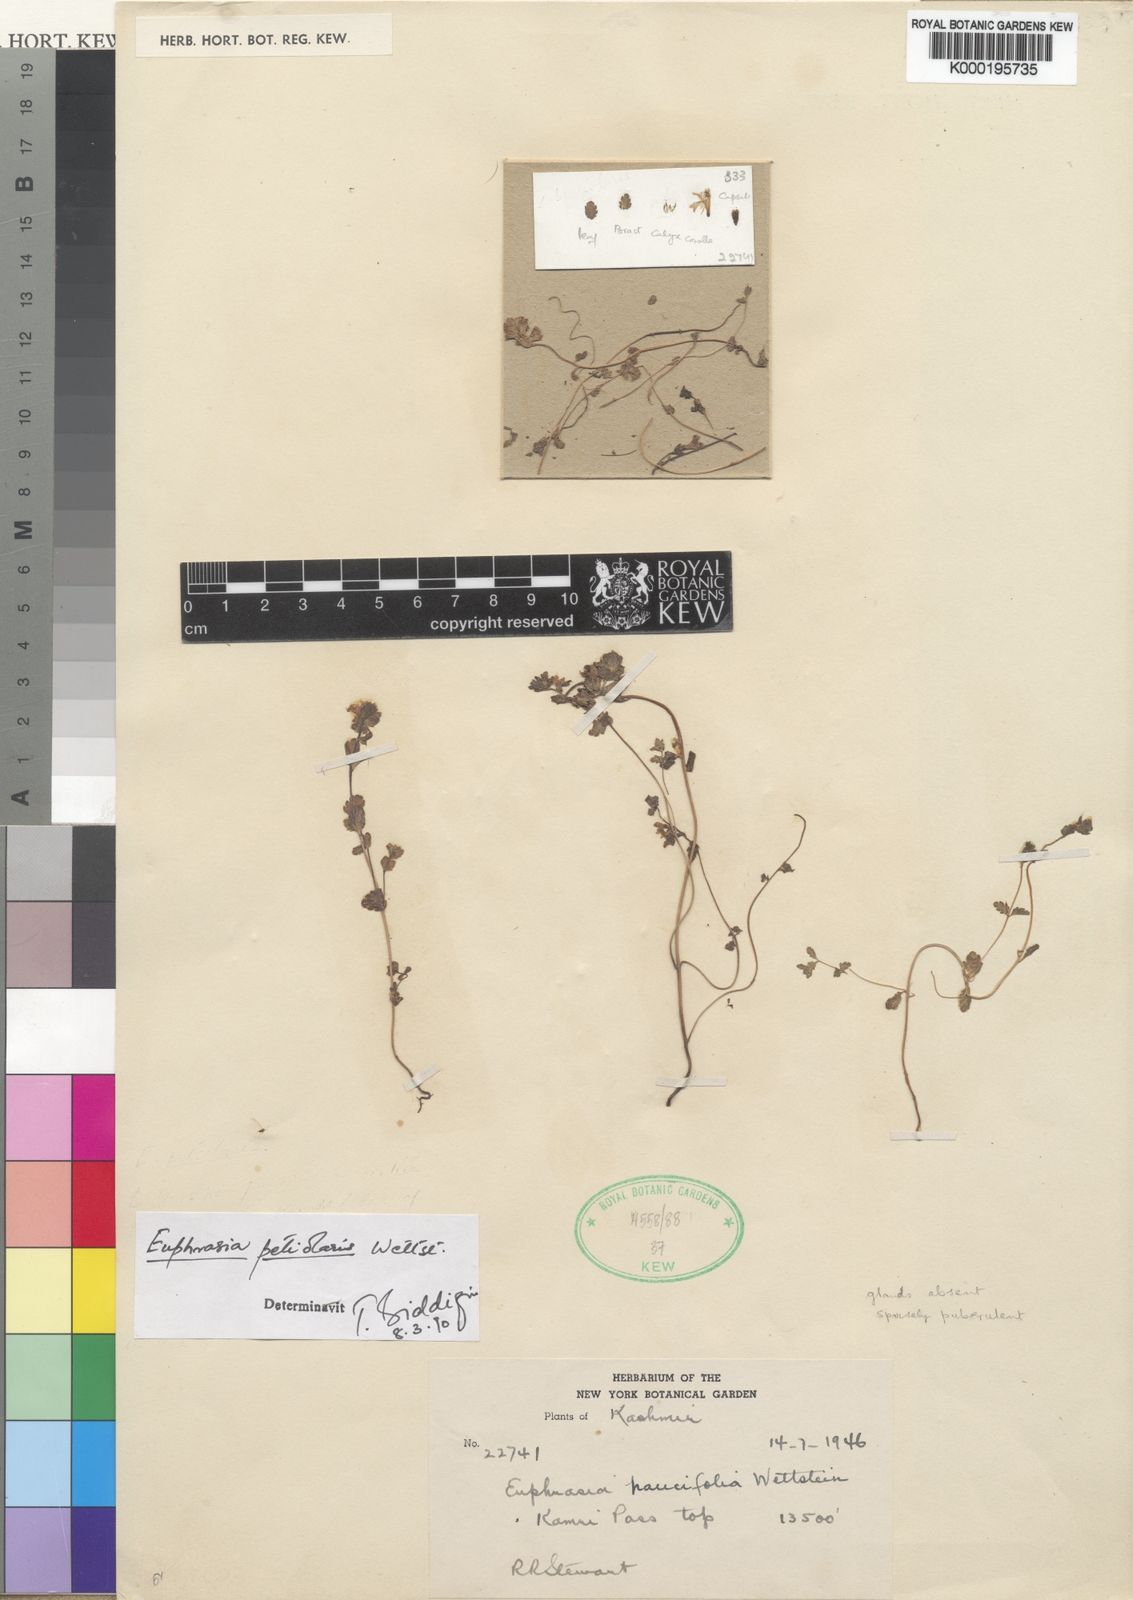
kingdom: Plantae
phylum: Tracheophyta
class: Magnoliopsida
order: Lamiales
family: Orobanchaceae
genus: Euphrasia
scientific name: Euphrasia petiolaris
